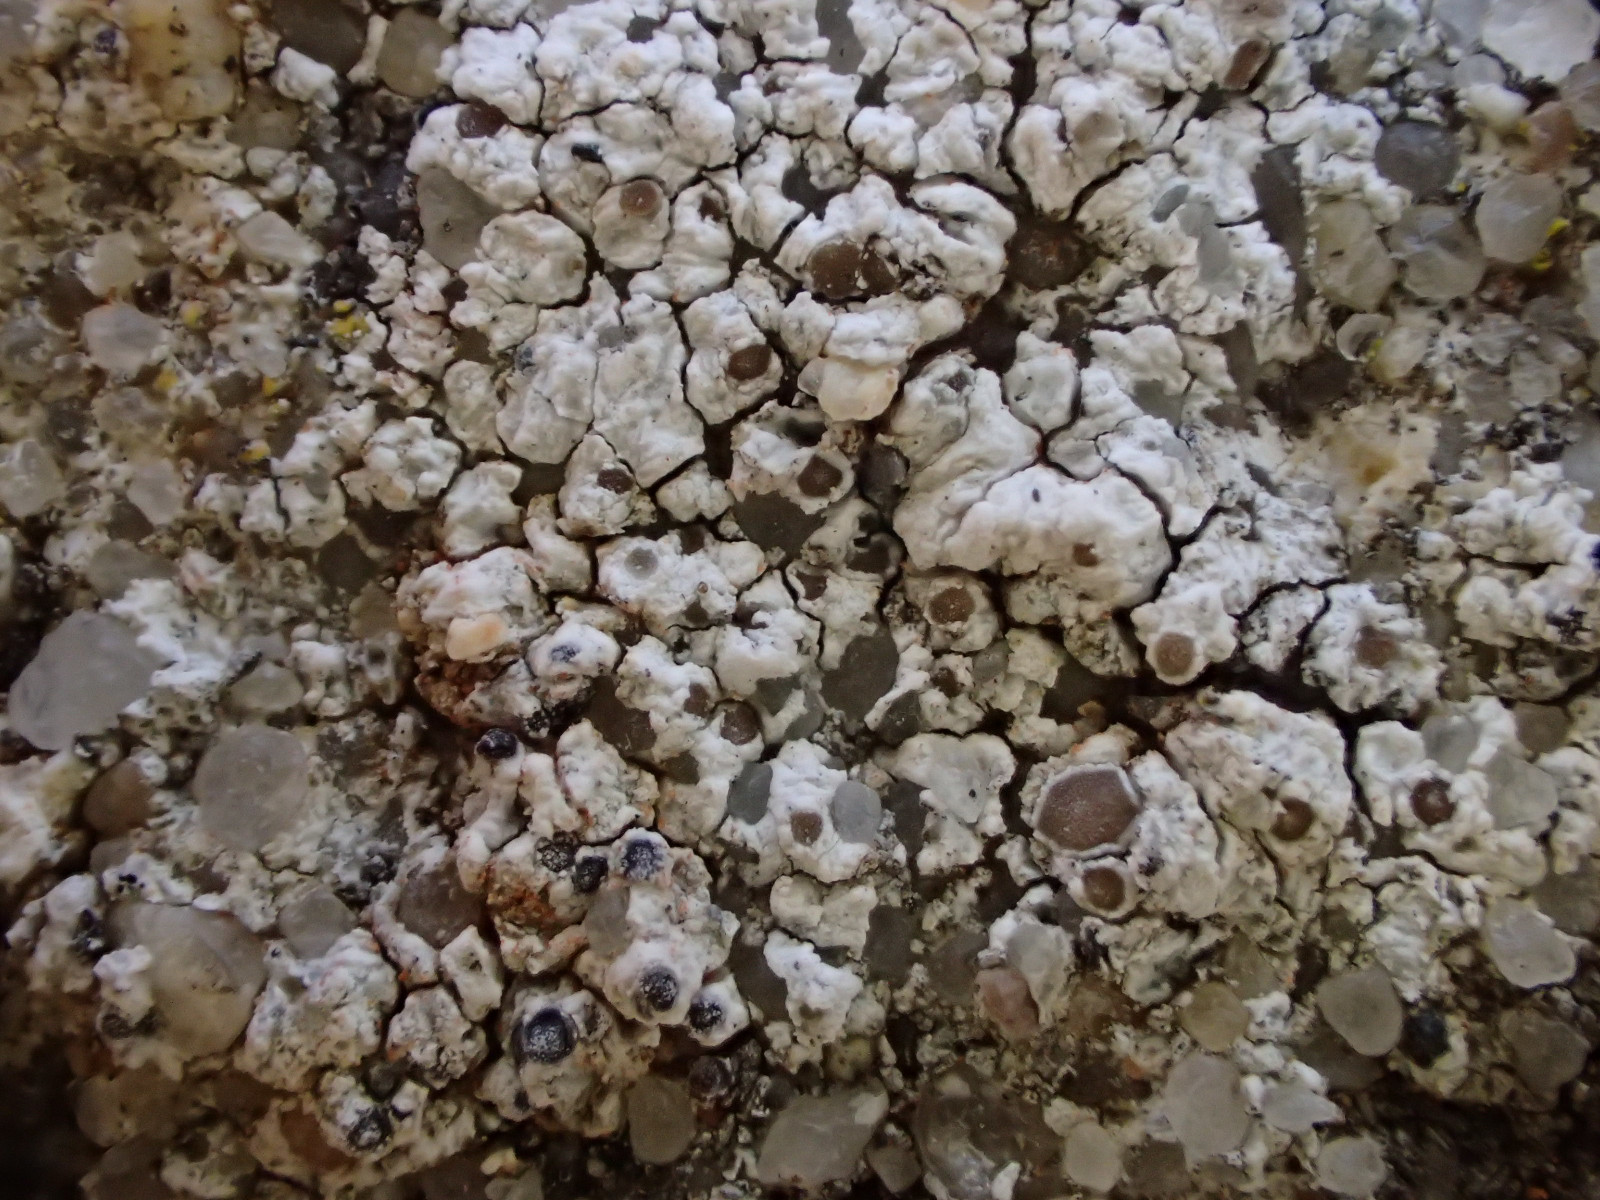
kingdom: Fungi
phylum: Ascomycota
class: Lecanoromycetes
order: Lecanorales
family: Lecanoraceae
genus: Polyozosia
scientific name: Polyozosia albescens
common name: cement-kantskivelav
